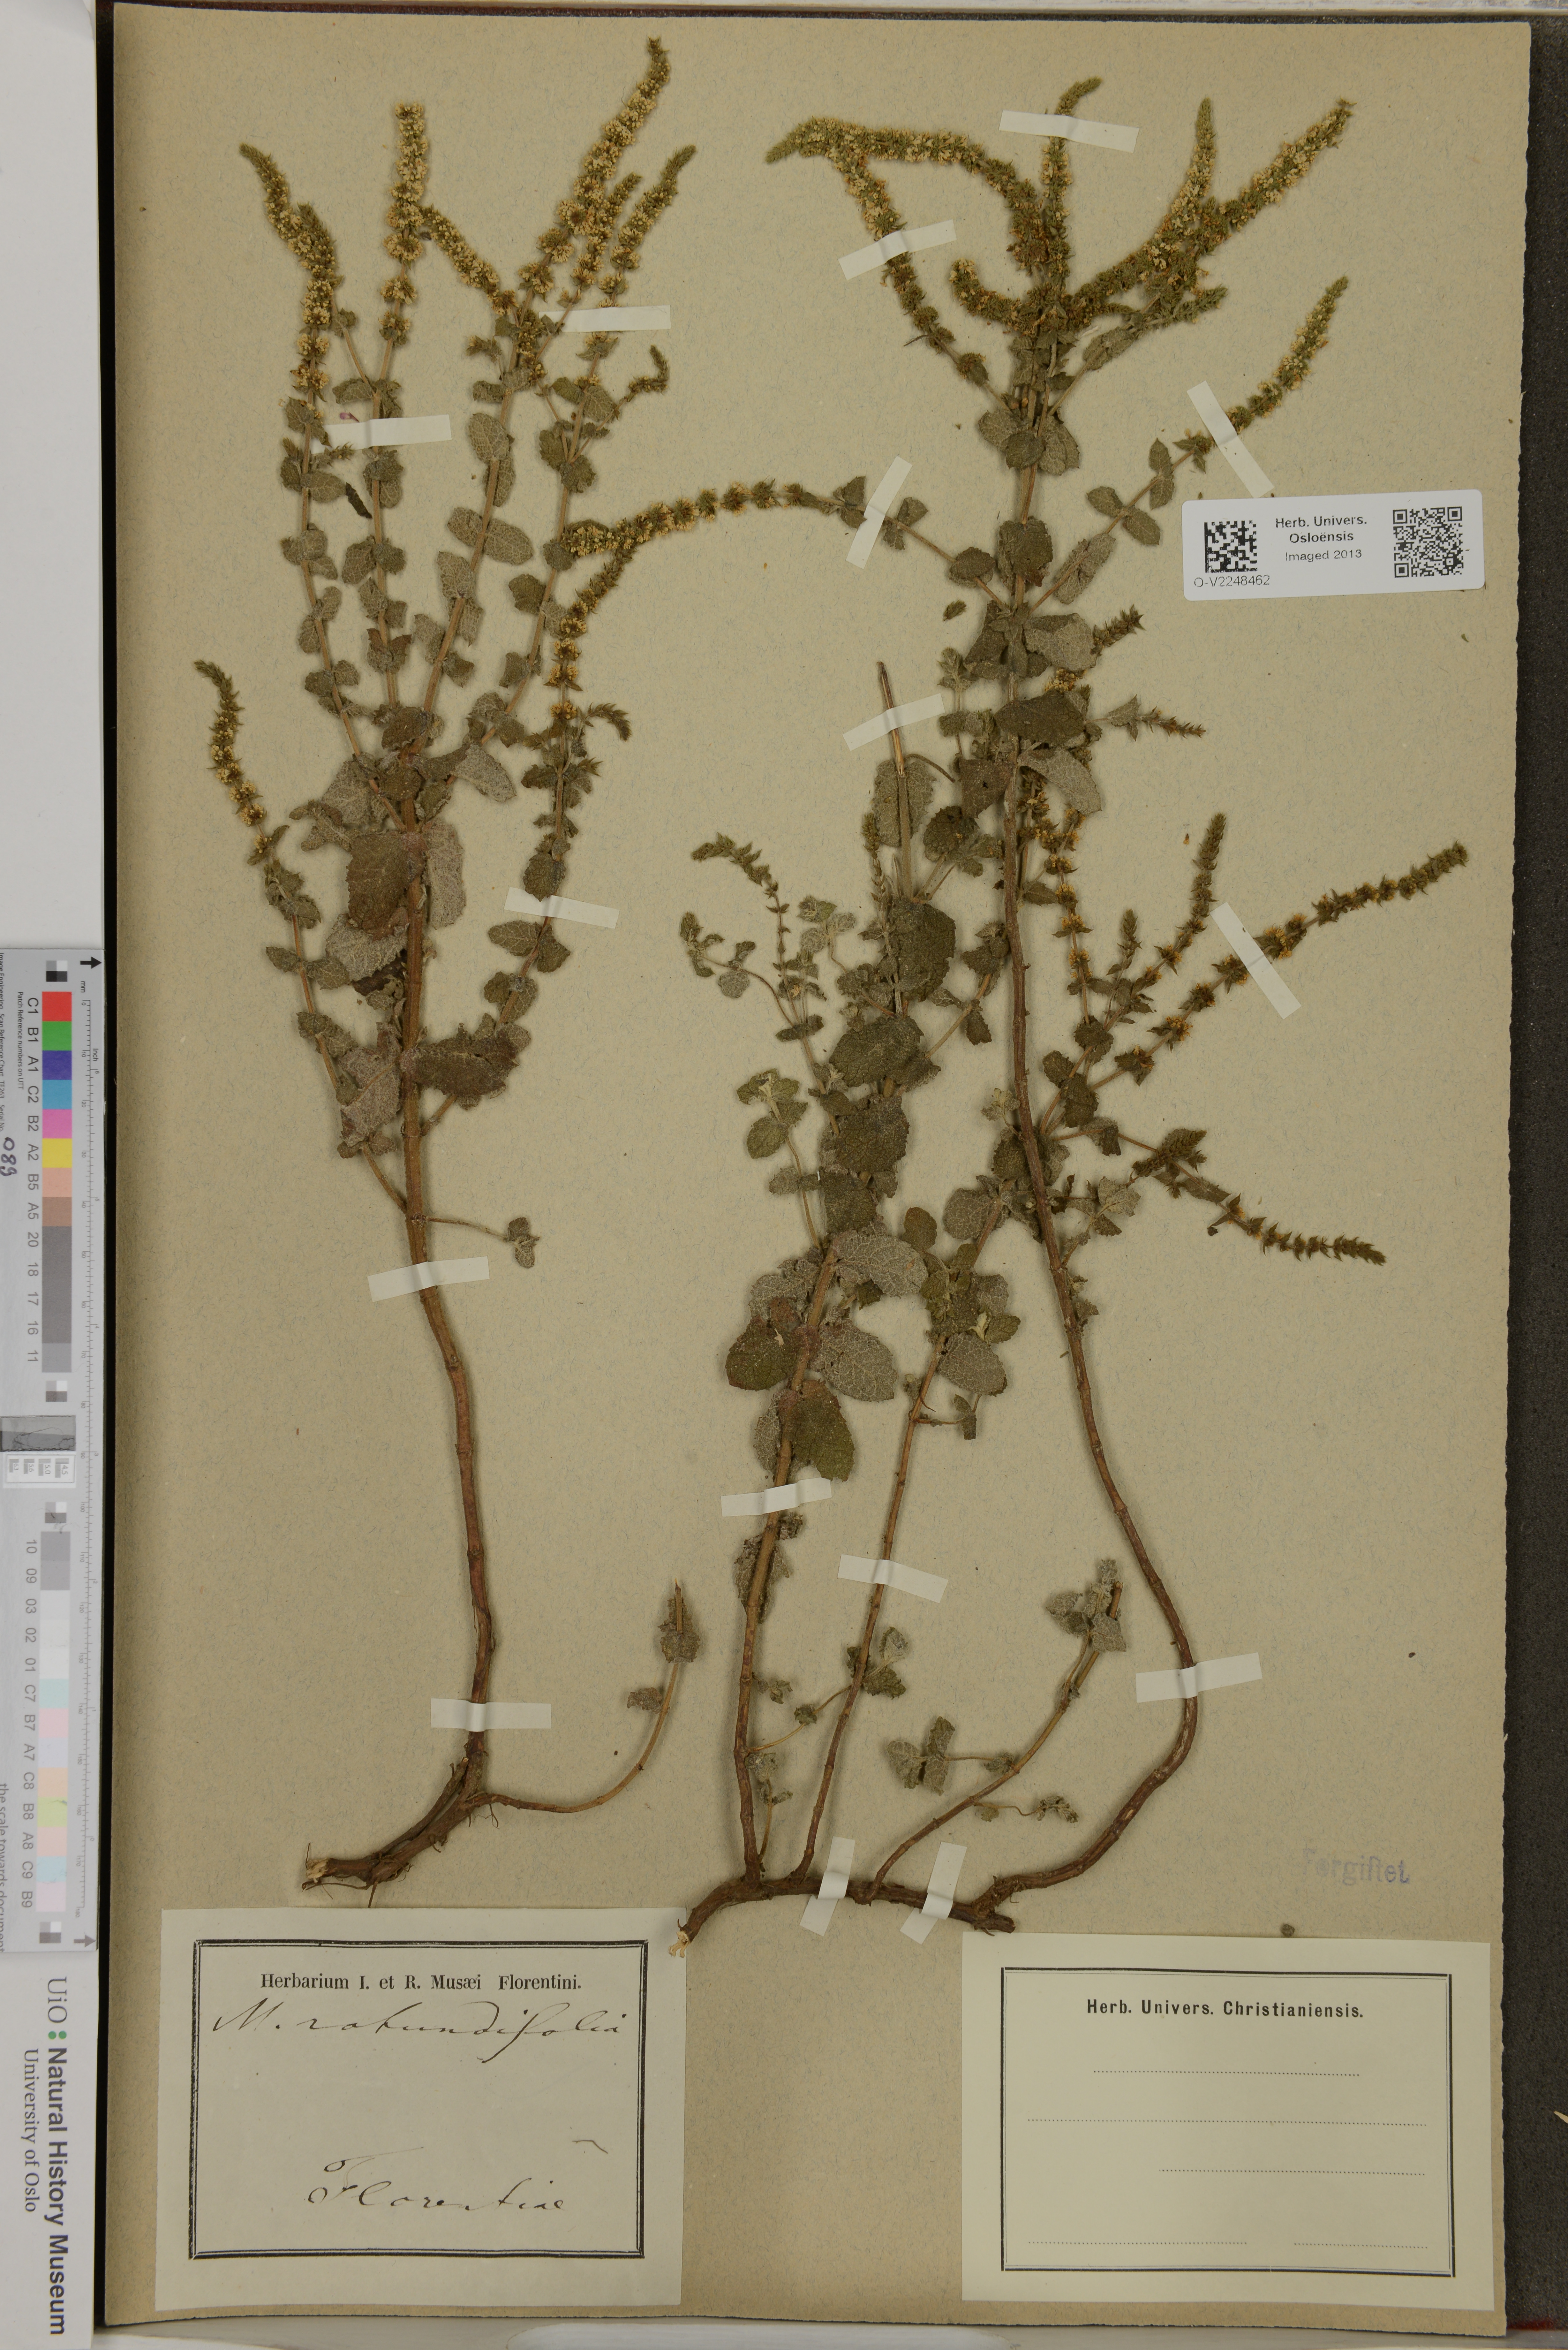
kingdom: Plantae
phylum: Tracheophyta
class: Magnoliopsida
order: Lamiales
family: Lamiaceae
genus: Mentha
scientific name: Mentha rotundifolia
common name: Bigleaf mint
